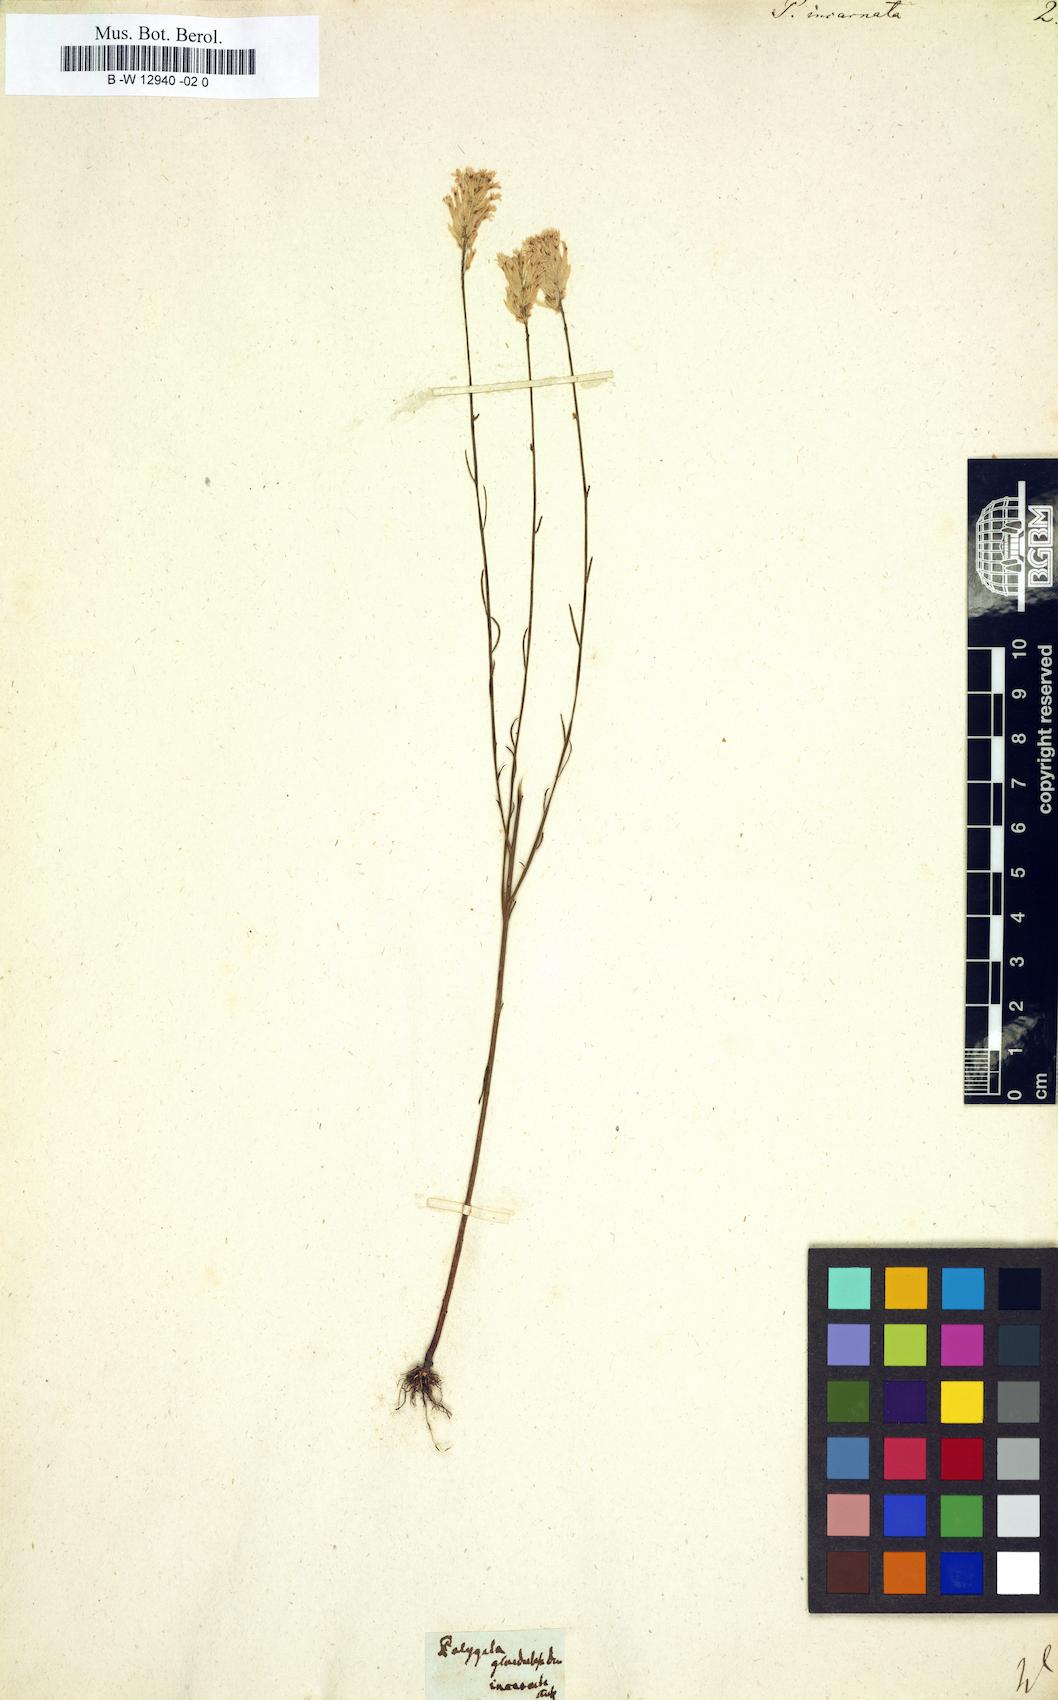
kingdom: Plantae
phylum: Tracheophyta
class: Magnoliopsida
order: Fabales
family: Polygalaceae
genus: Polygala
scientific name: Polygala incarnata
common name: Pink milkwort
